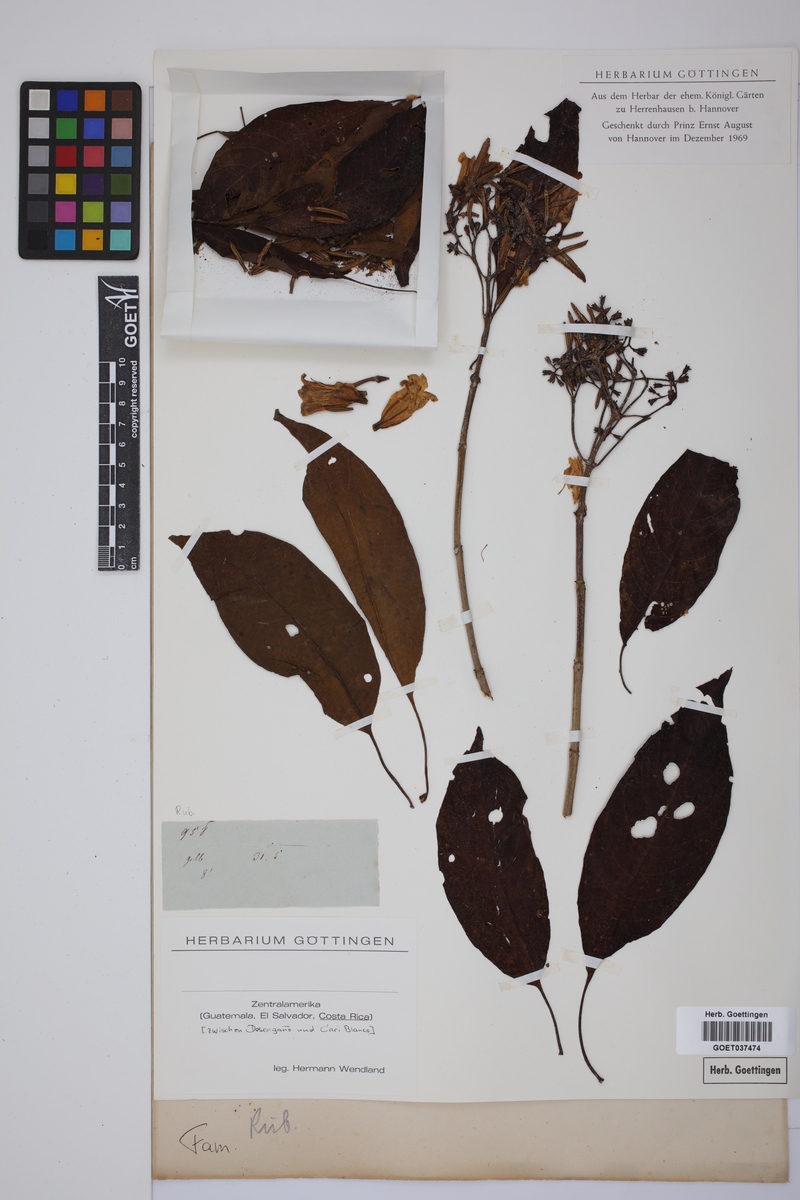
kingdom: Plantae
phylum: Tracheophyta
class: Magnoliopsida
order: Gentianales
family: Rubiaceae
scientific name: Rubiaceae
